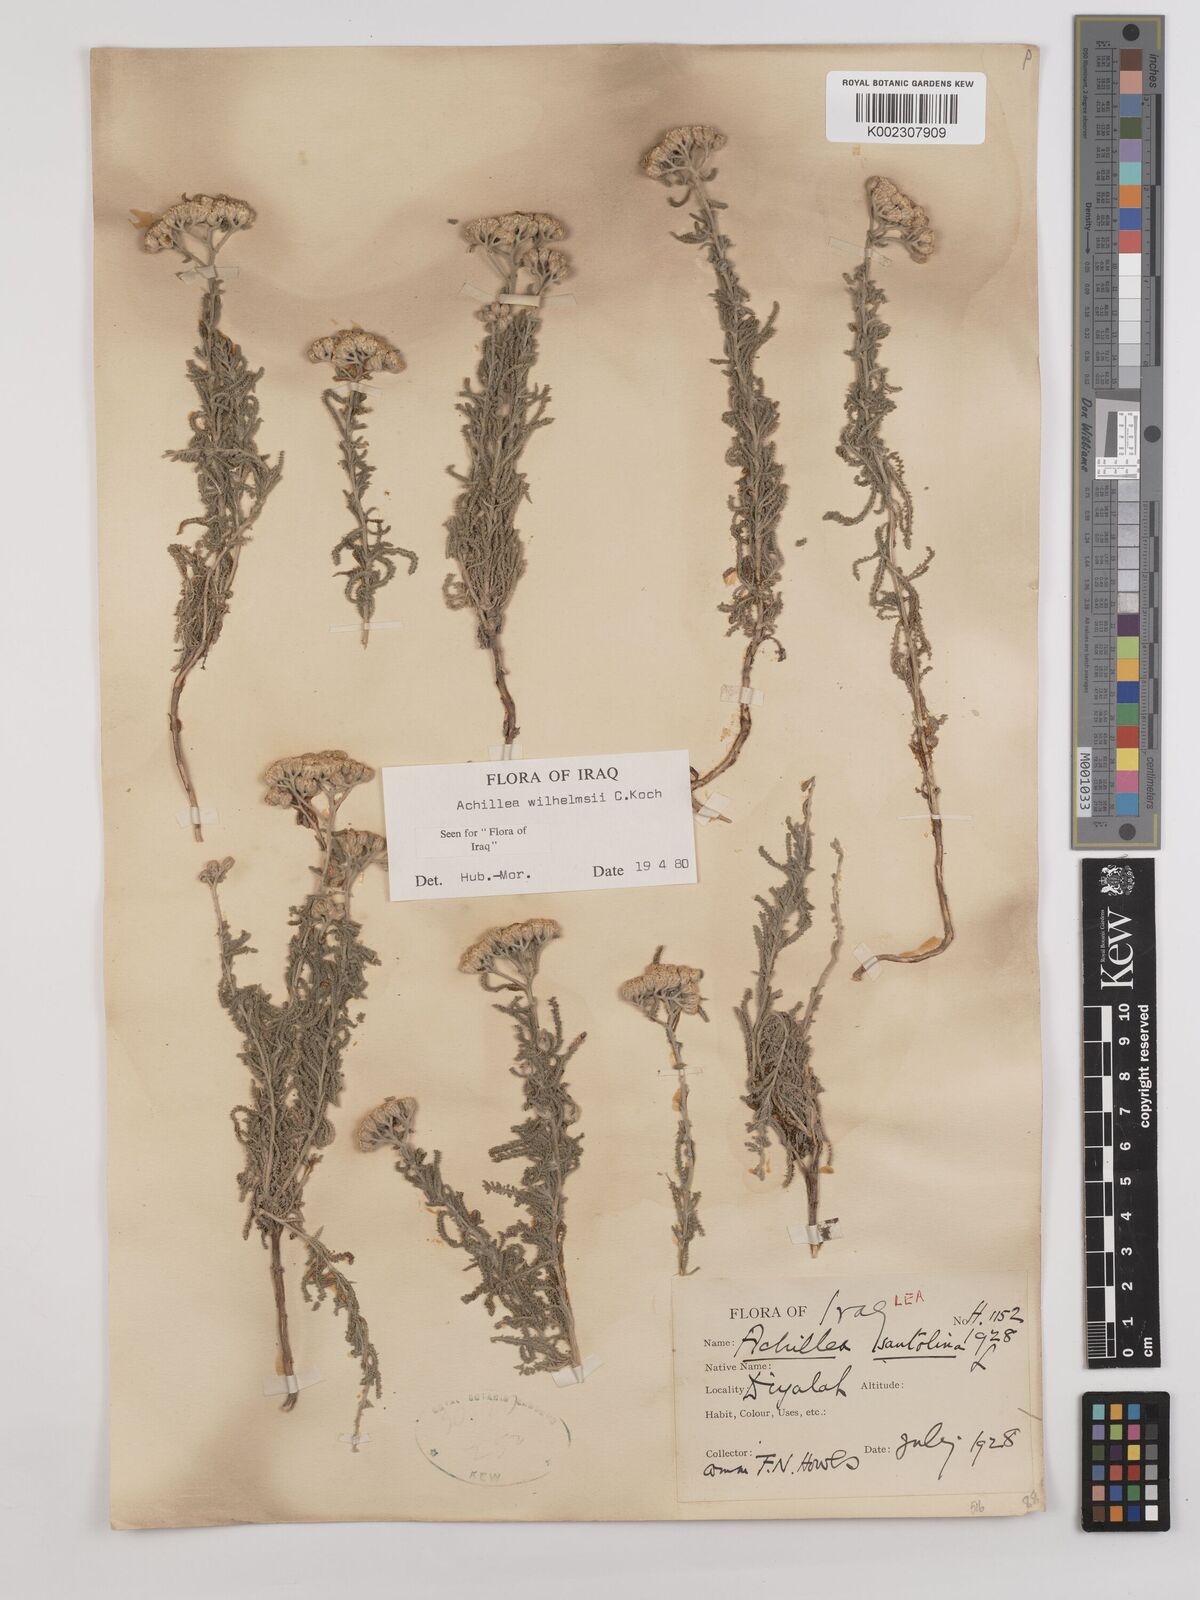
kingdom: Plantae
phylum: Tracheophyta
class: Magnoliopsida
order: Asterales
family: Asteraceae
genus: Achillea
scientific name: Achillea wilhelmsii
